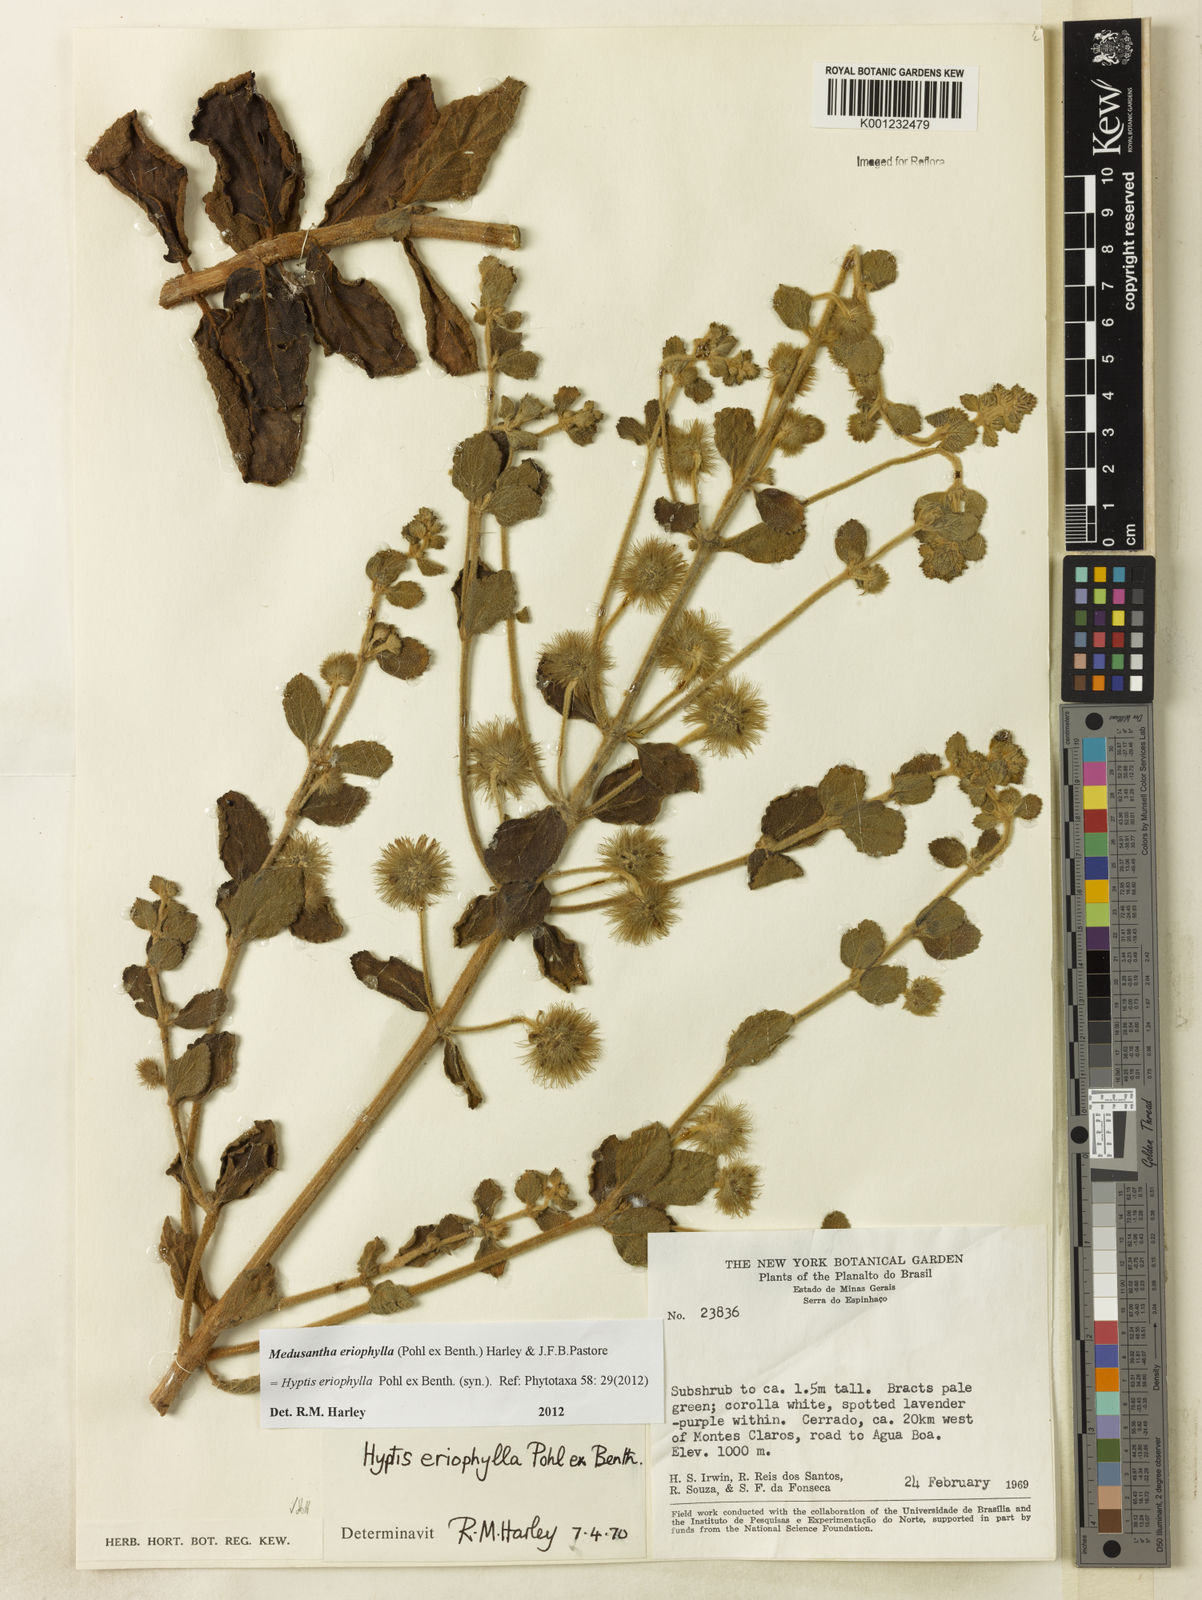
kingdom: Plantae
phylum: Tracheophyta
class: Magnoliopsida
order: Lamiales
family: Lamiaceae
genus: Medusantha
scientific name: Medusantha eriophylla
